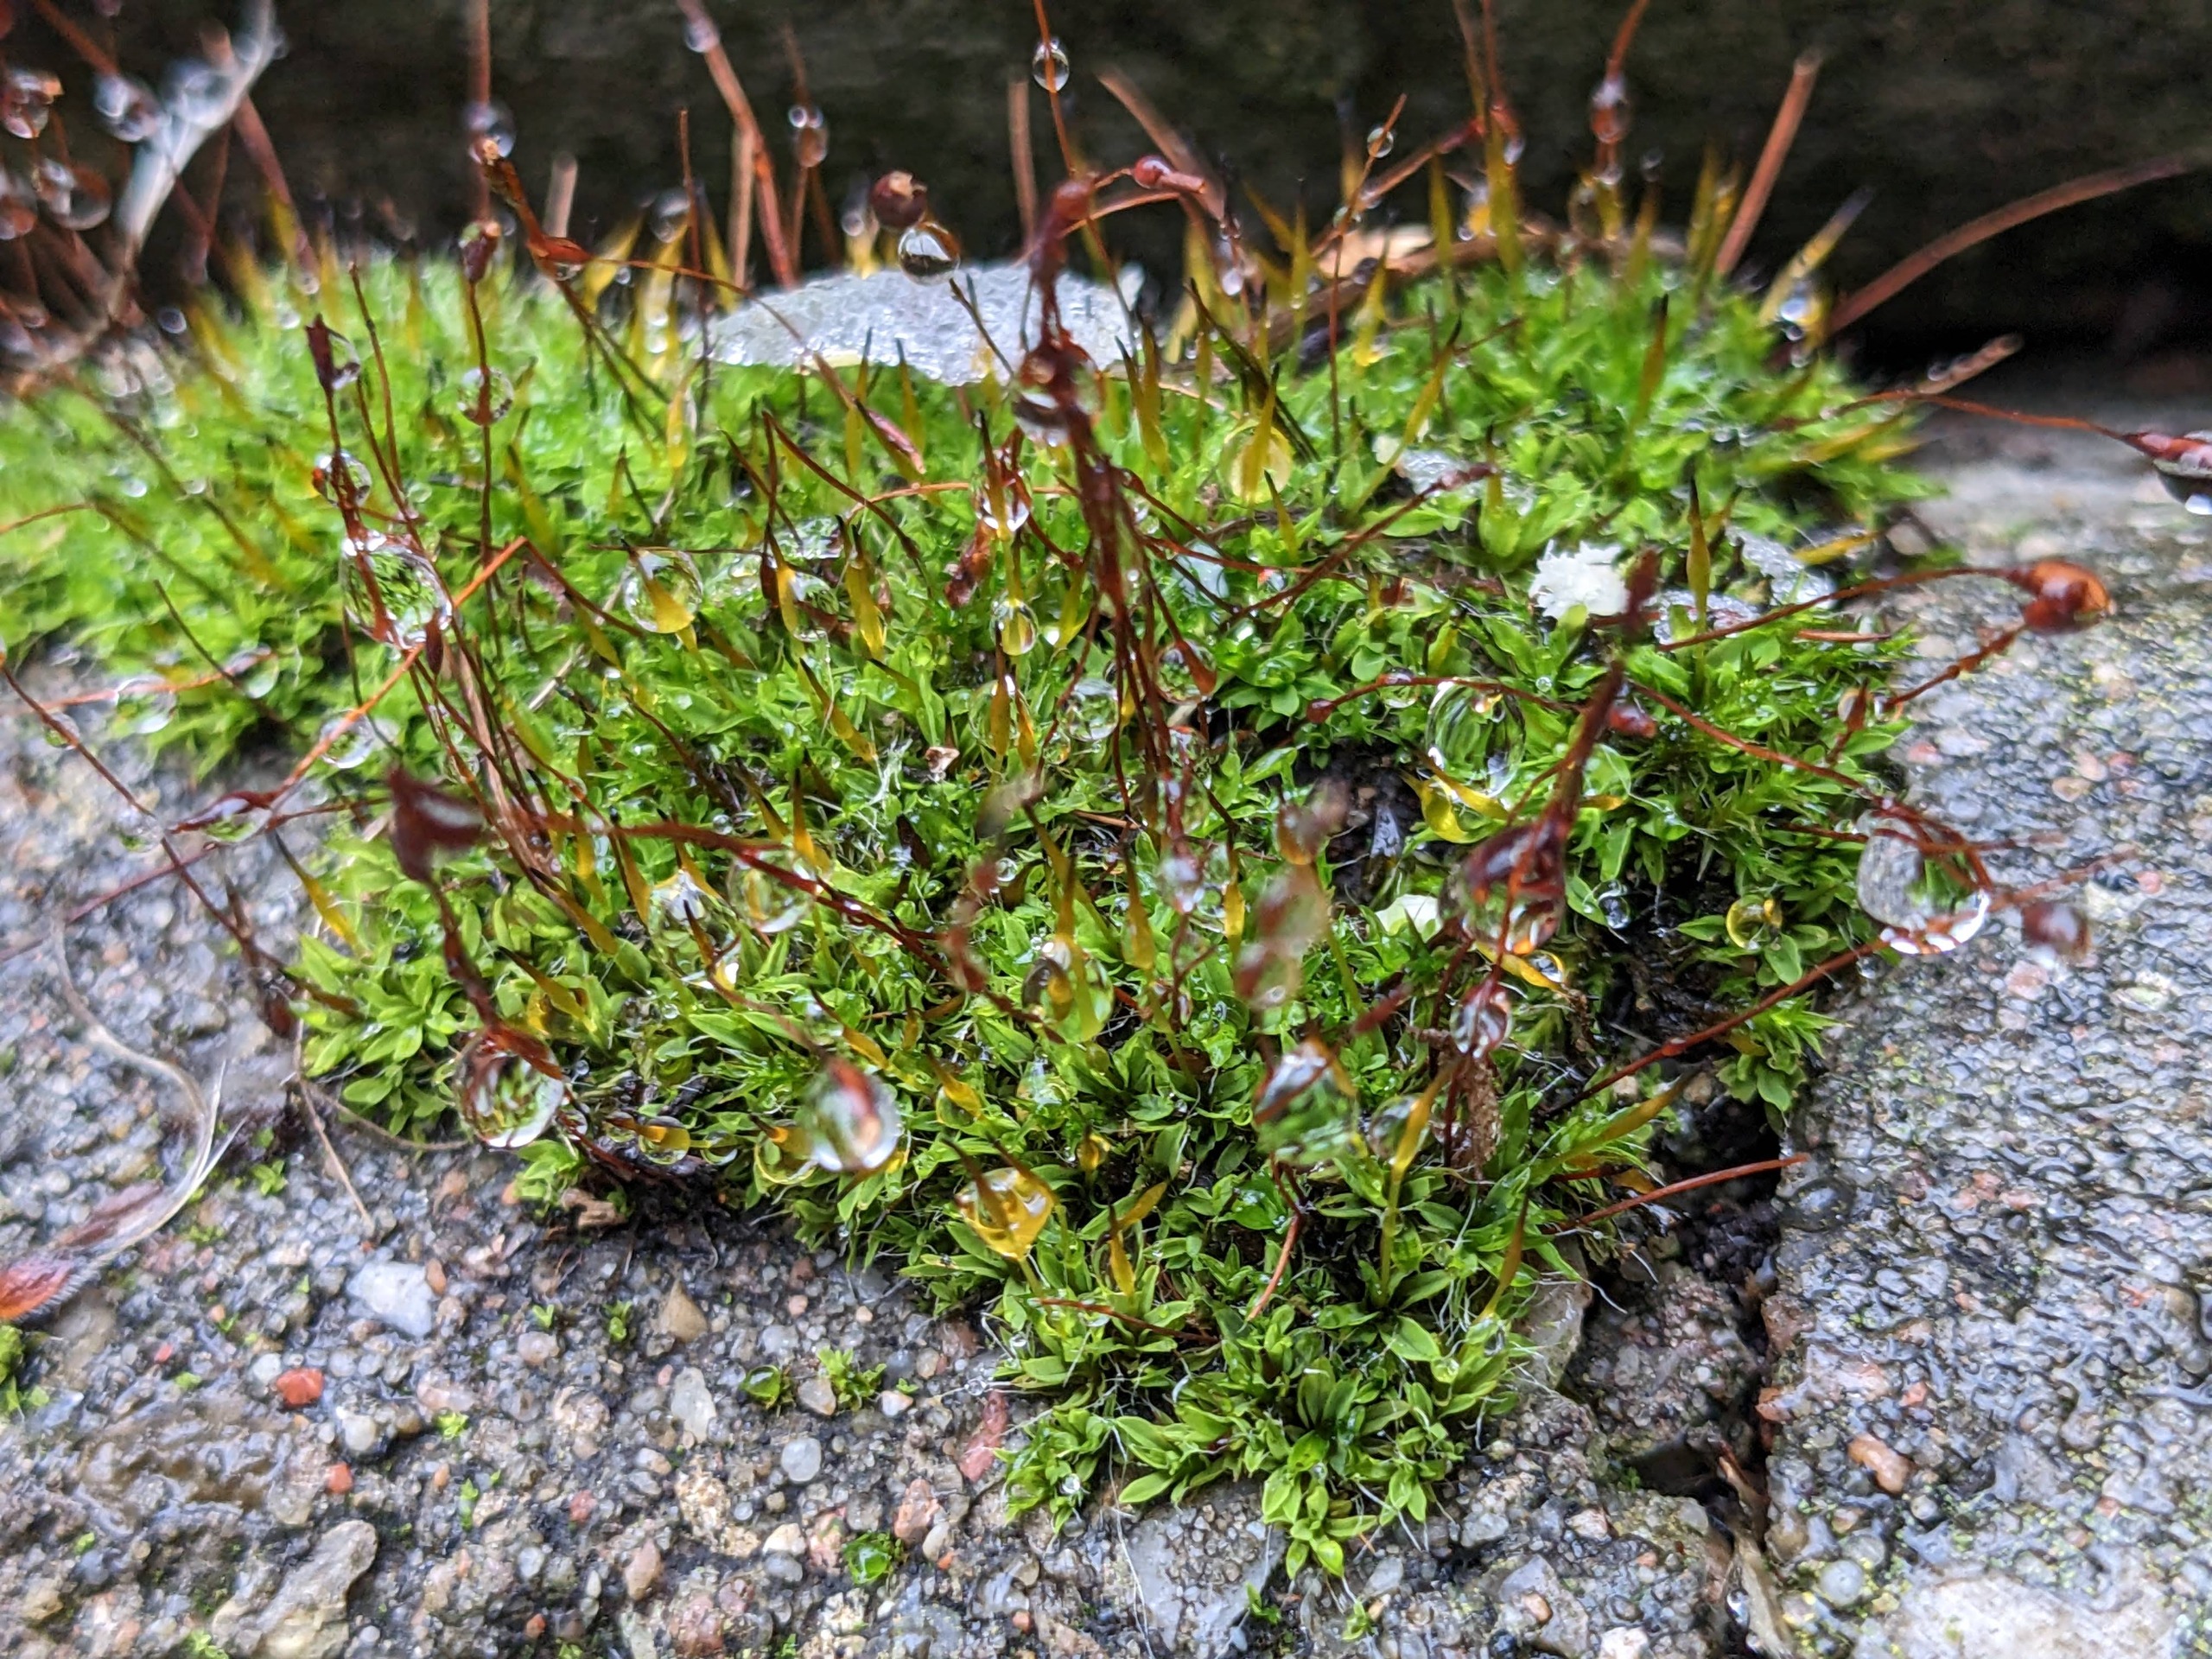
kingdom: Plantae
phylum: Bryophyta
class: Bryopsida
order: Pottiales
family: Pottiaceae
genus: Tortula
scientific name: Tortula muralis
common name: Mur-snotand
